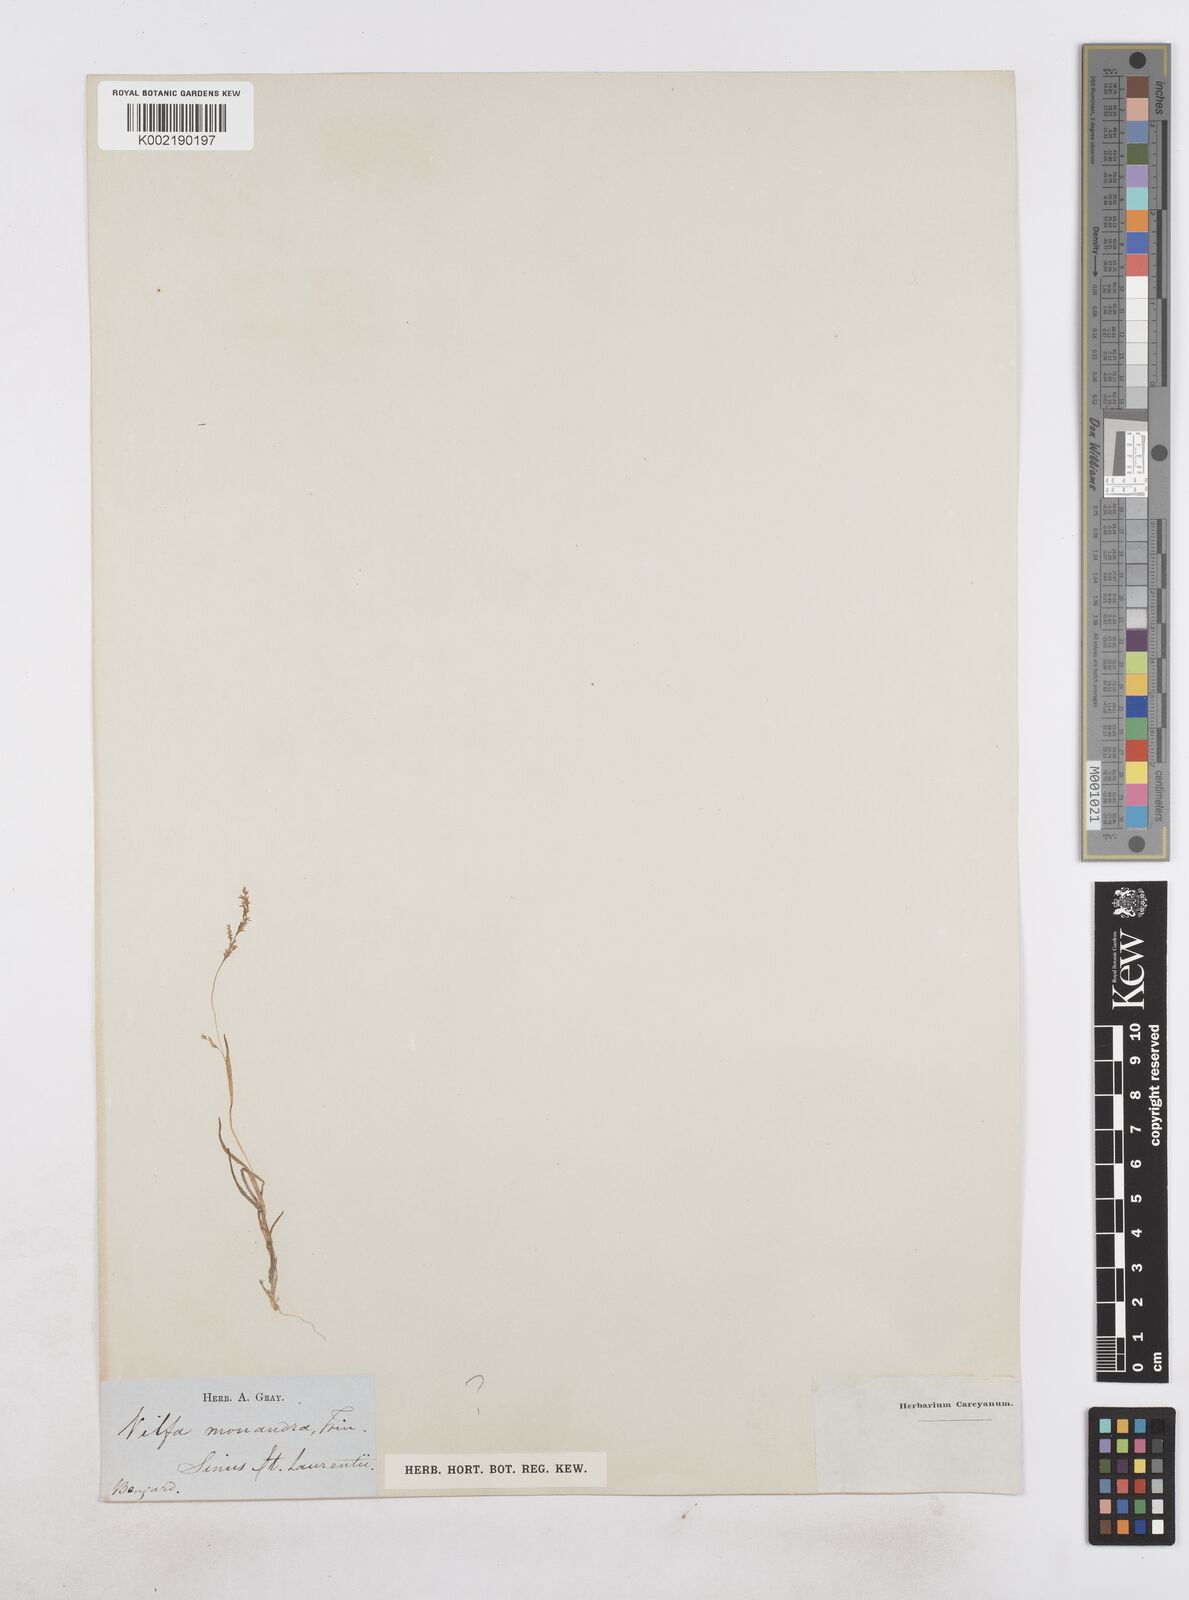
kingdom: Plantae
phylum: Tracheophyta
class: Liliopsida
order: Poales
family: Poaceae
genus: Phippsia
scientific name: Phippsia algida
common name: Ice grass
